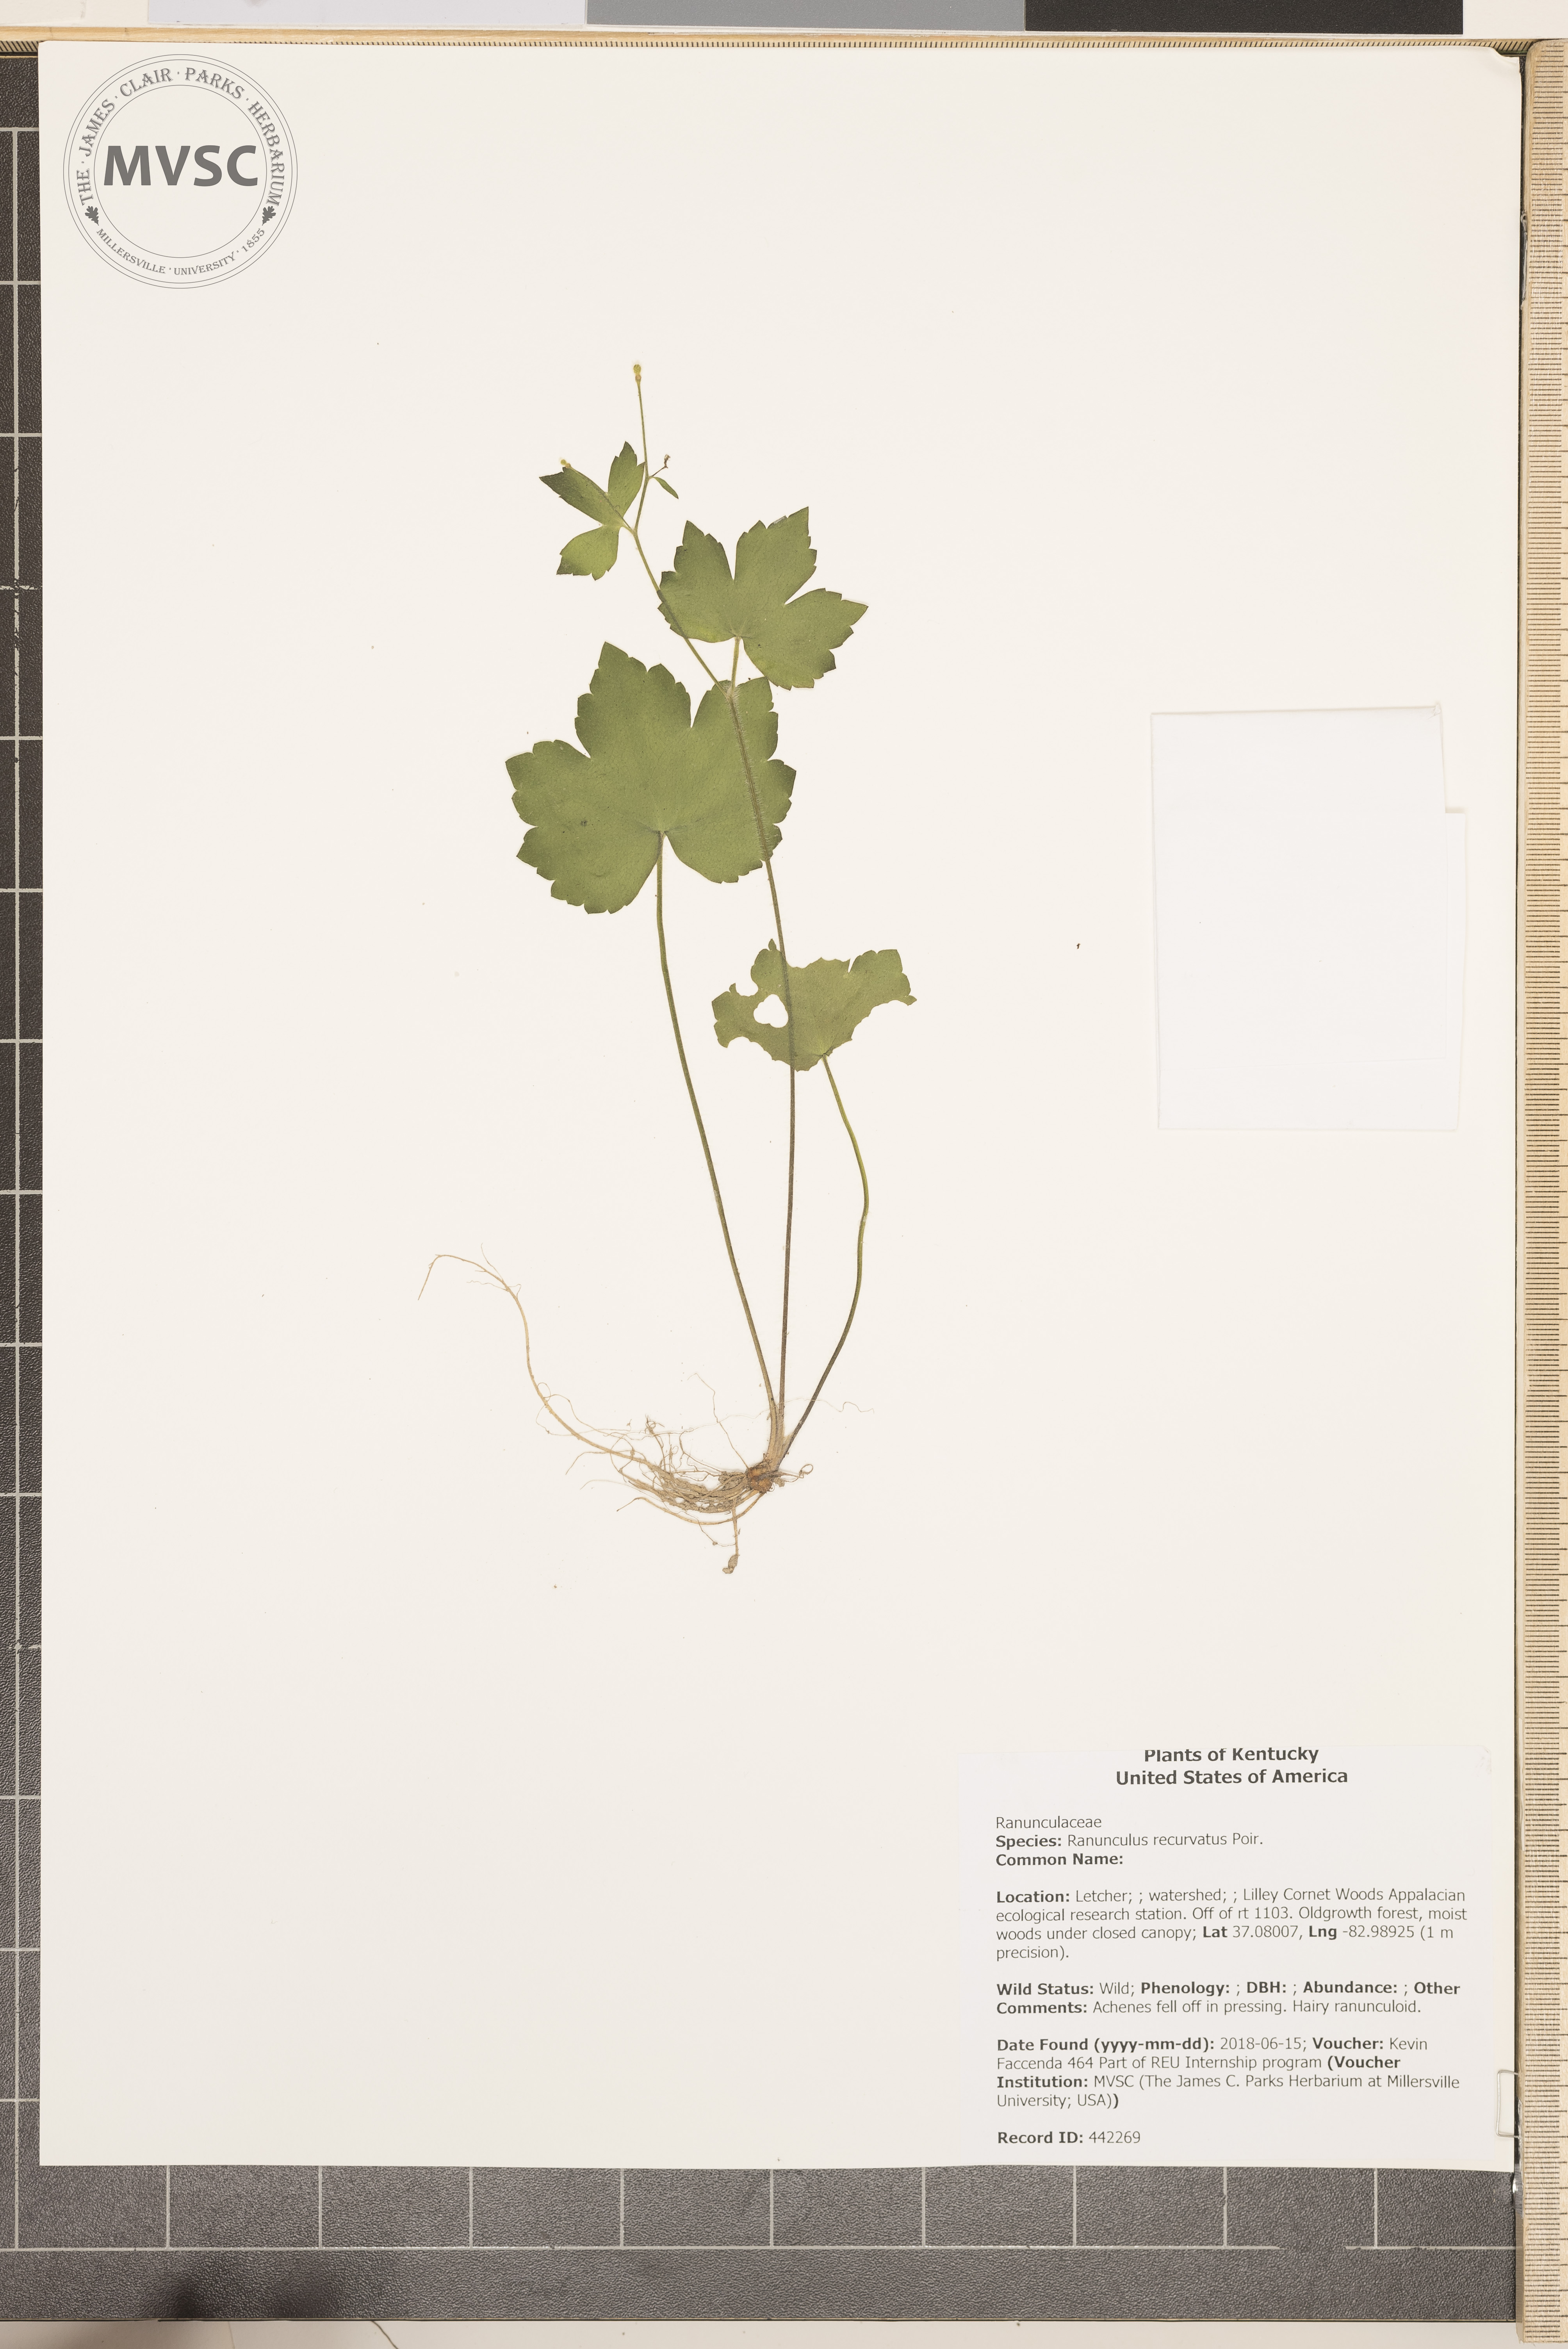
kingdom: Plantae
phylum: Tracheophyta
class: Magnoliopsida
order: Ranunculales
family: Ranunculaceae
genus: Ranunculus
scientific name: Ranunculus recurvatus
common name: Blisterwort
